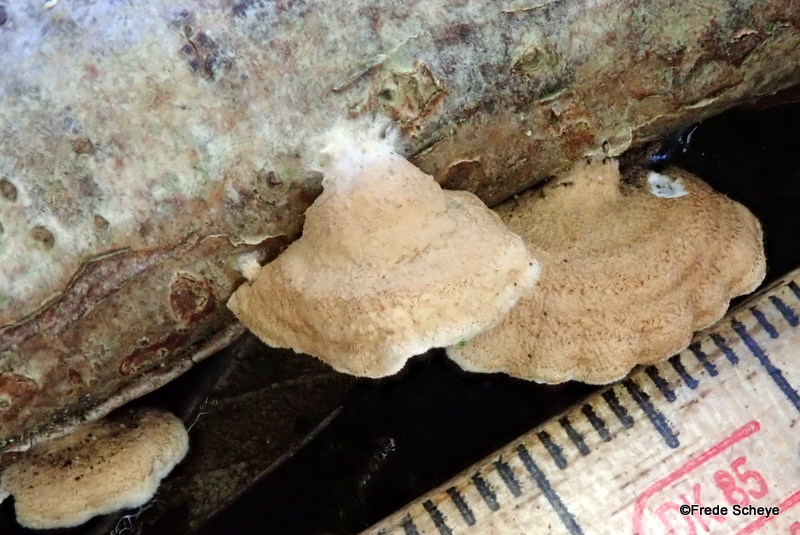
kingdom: Fungi
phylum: Basidiomycota
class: Agaricomycetes
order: Amylocorticiales
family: Amylocorticiaceae
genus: Plicaturopsis
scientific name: Plicaturopsis crispa
